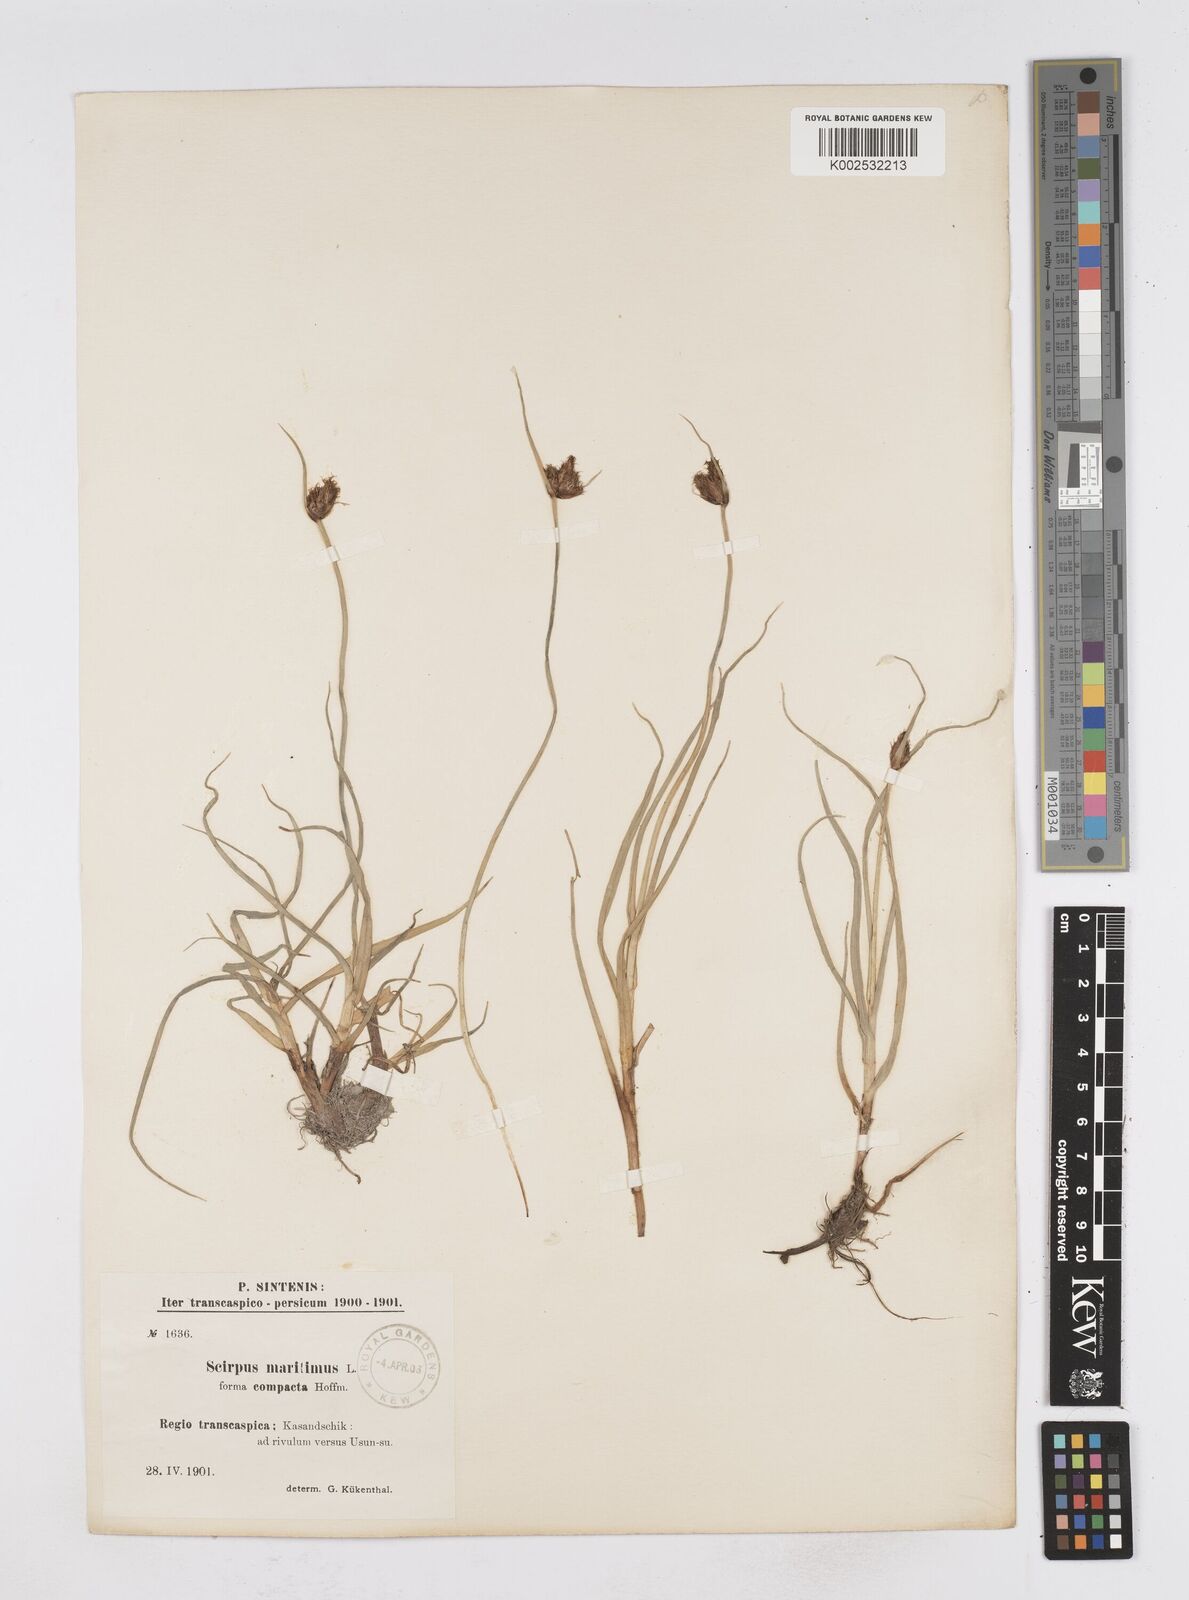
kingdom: Plantae
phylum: Tracheophyta
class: Liliopsida
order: Poales
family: Cyperaceae
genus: Bolboschoenus
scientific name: Bolboschoenus maritimus
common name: Sea club-rush
